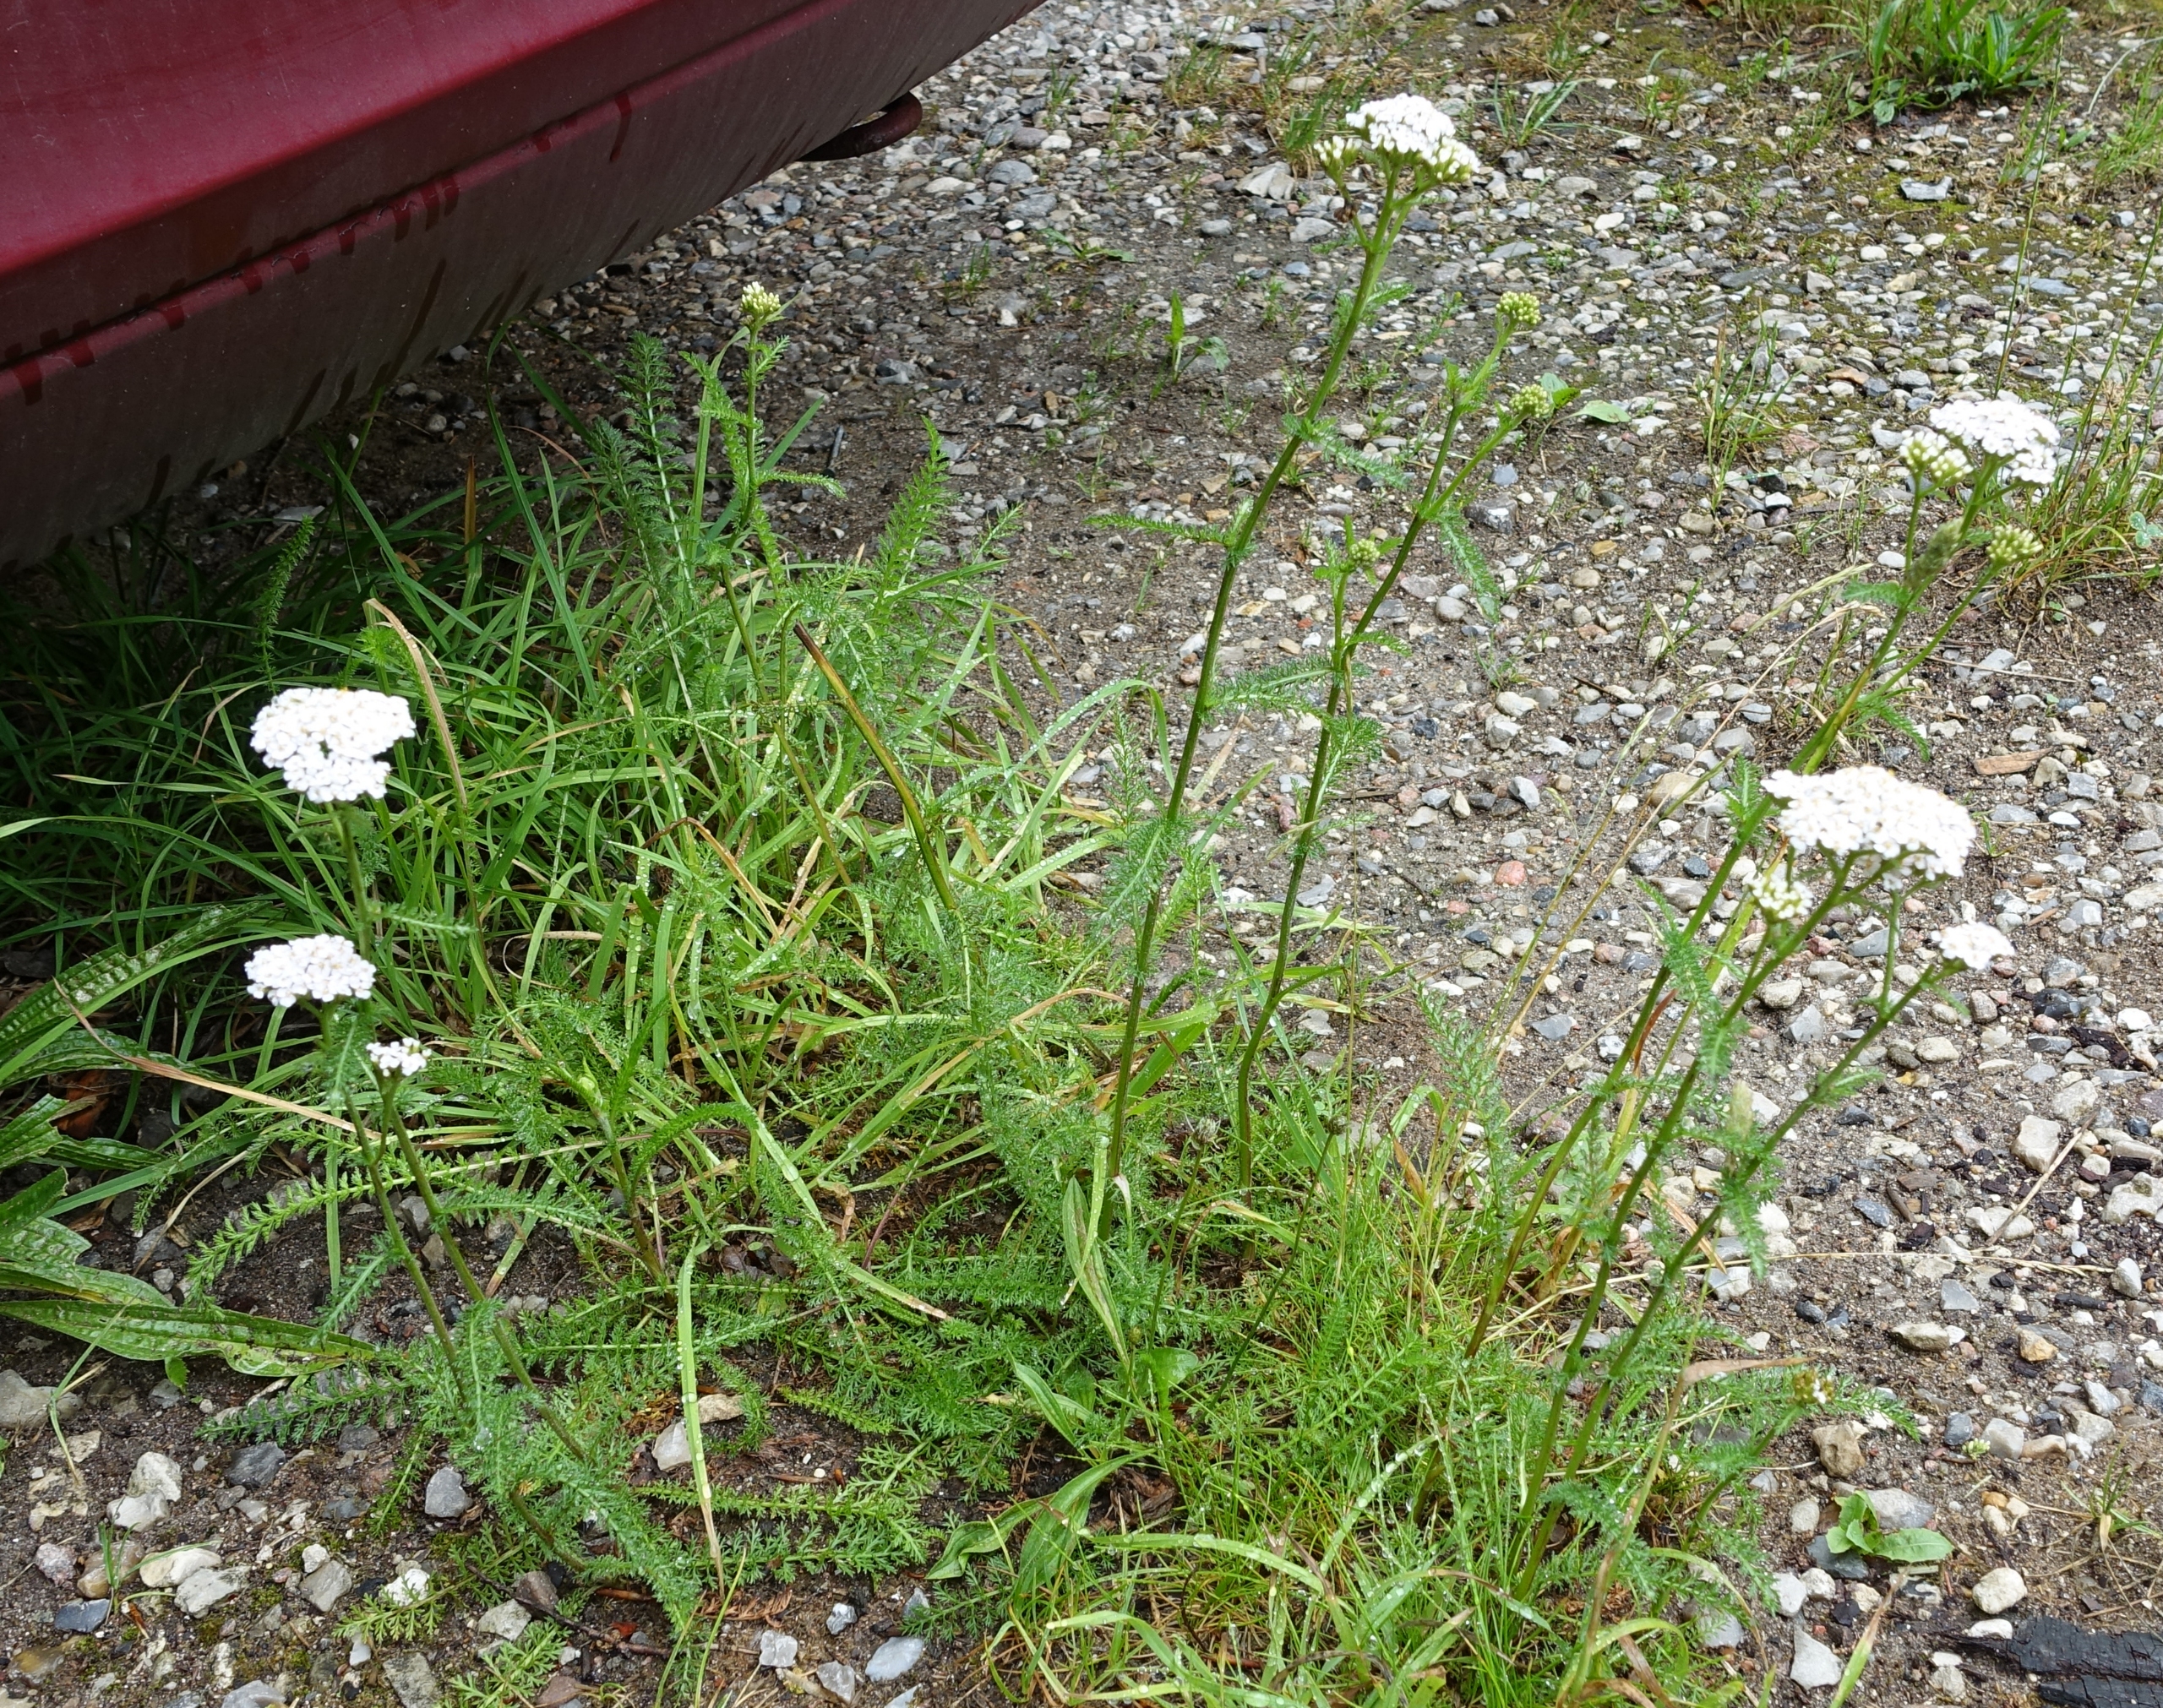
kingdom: Plantae
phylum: Tracheophyta
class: Magnoliopsida
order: Asterales
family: Asteraceae
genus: Achillea
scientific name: Achillea millefolium
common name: Almindelig røllike
